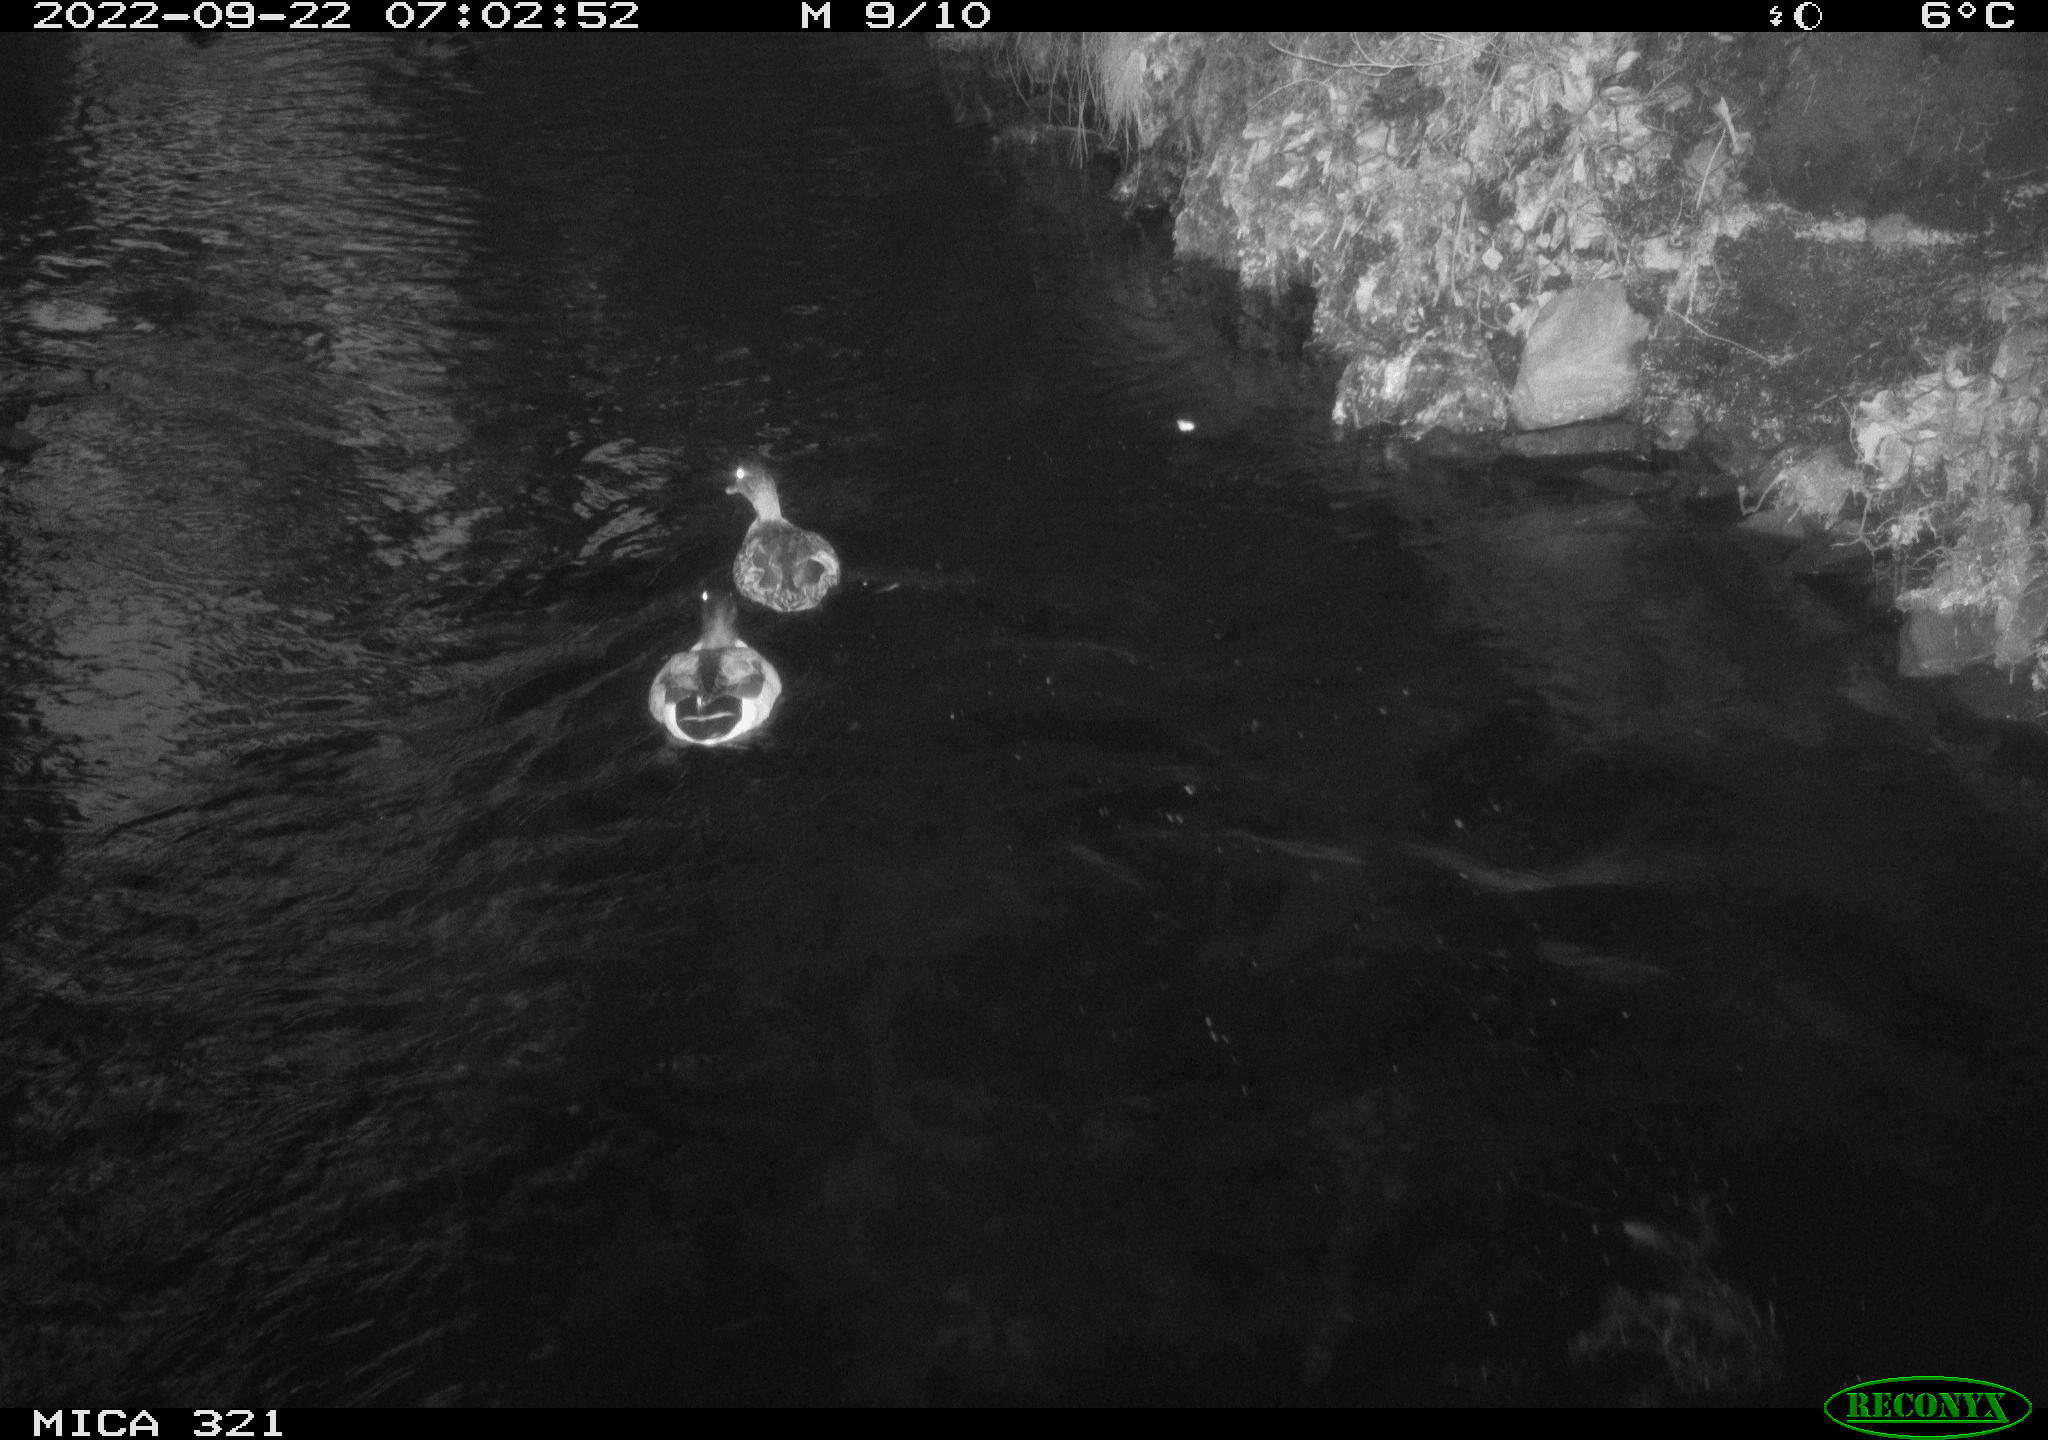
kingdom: Animalia
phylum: Chordata
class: Aves
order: Anseriformes
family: Anatidae
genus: Anas
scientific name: Anas
